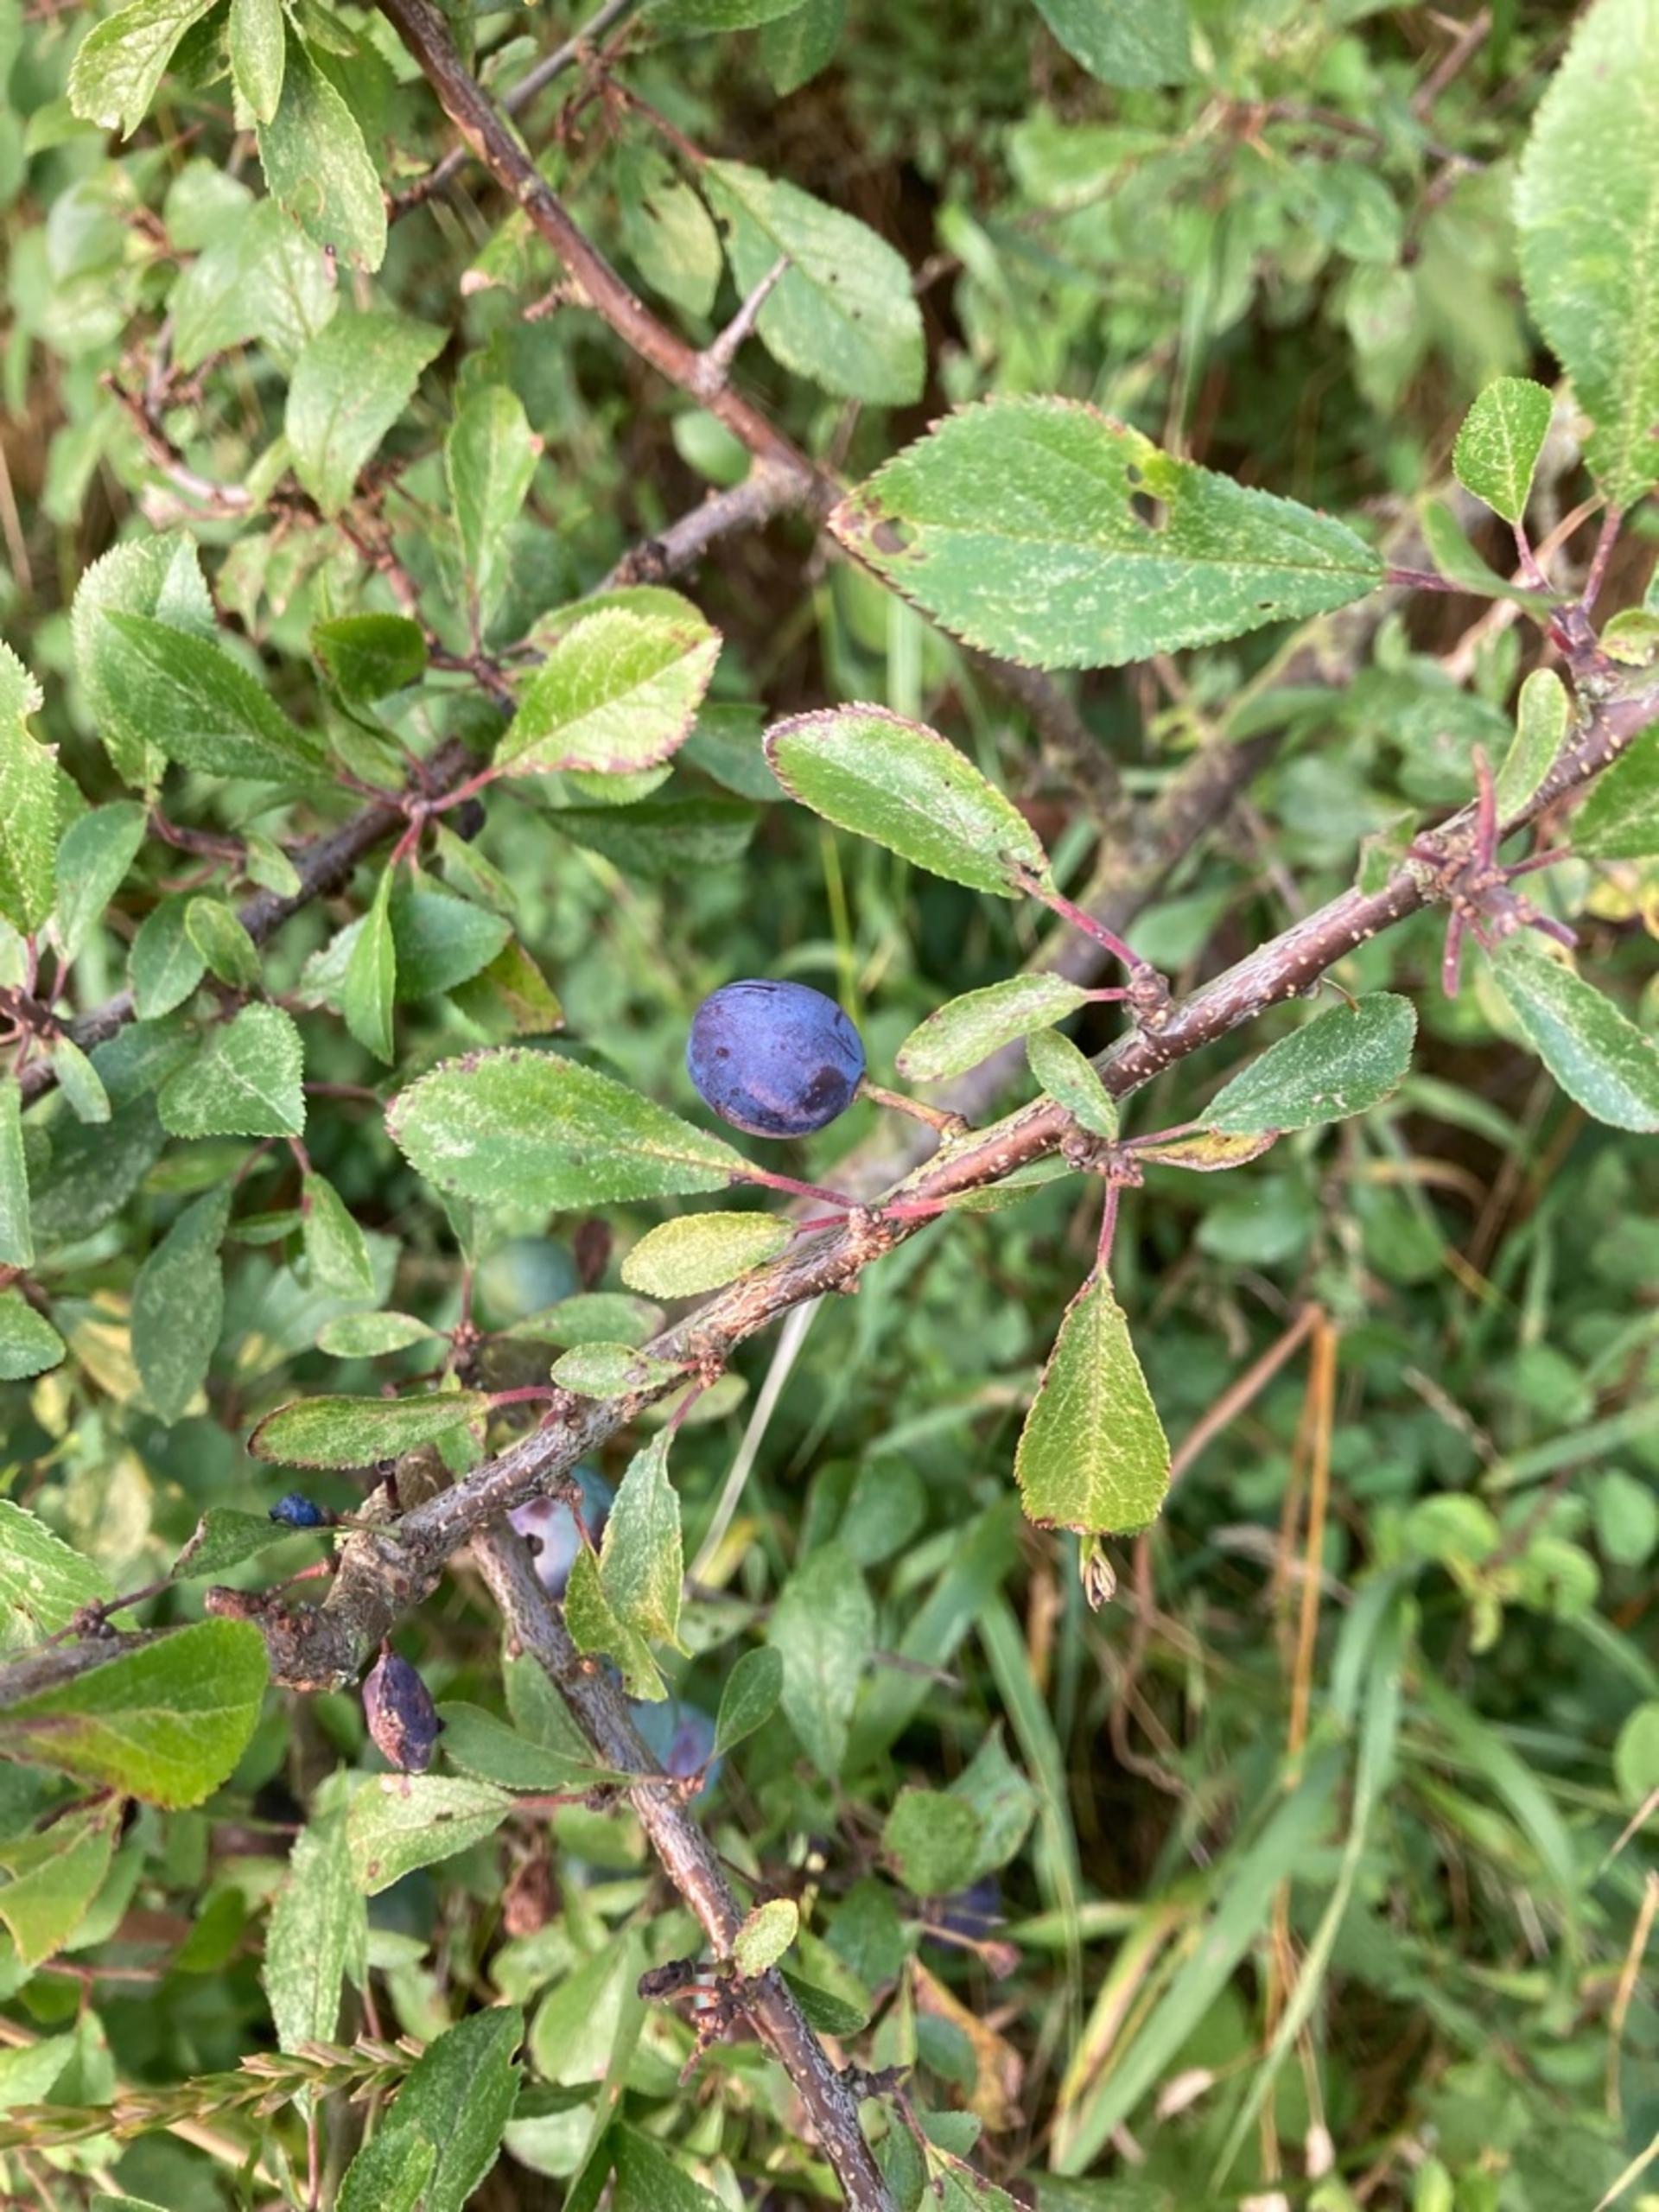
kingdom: Plantae
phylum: Tracheophyta
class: Magnoliopsida
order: Rosales
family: Rosaceae
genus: Prunus
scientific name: Prunus spinosa
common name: Slåen
